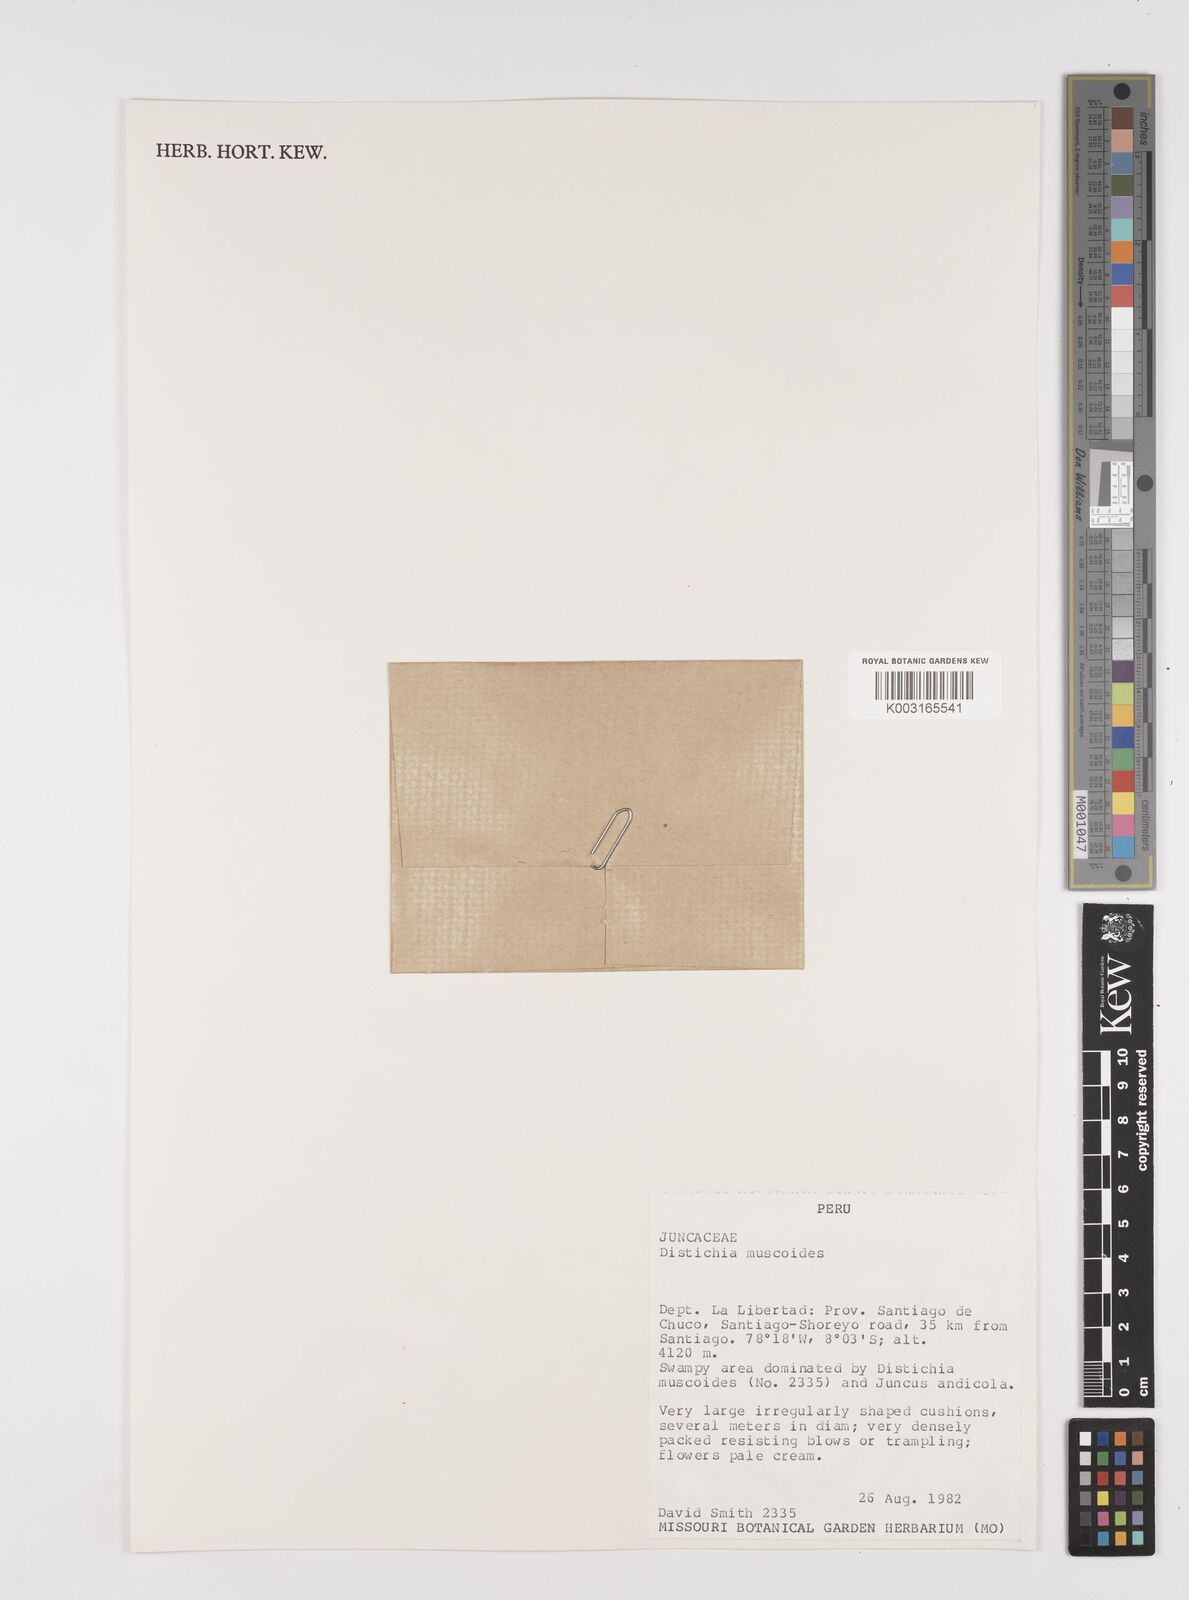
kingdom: Plantae
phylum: Tracheophyta
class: Liliopsida
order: Poales
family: Juncaceae
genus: Distichia
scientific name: Distichia muscoides
